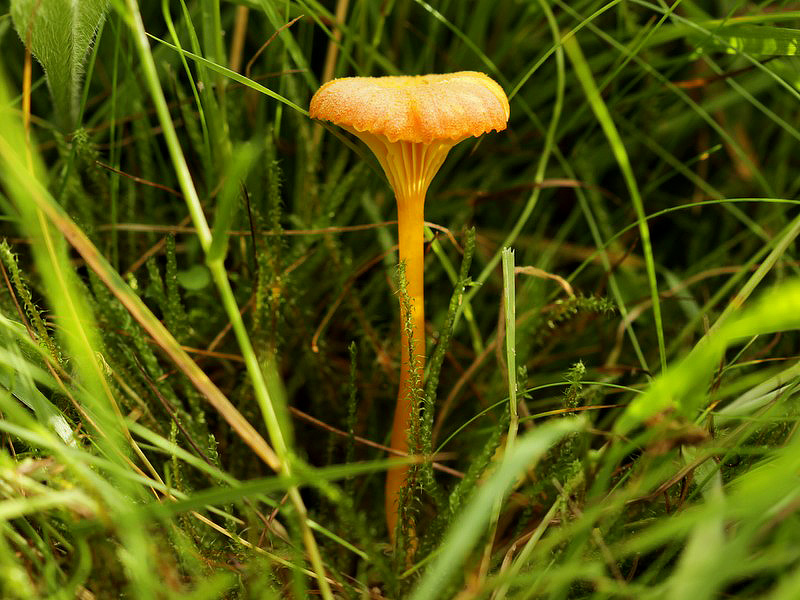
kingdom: Fungi
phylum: Basidiomycota
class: Agaricomycetes
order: Agaricales
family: Hygrophoraceae
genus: Hygrocybe
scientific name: Hygrocybe cantharellus
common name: kantarel-vokshat
